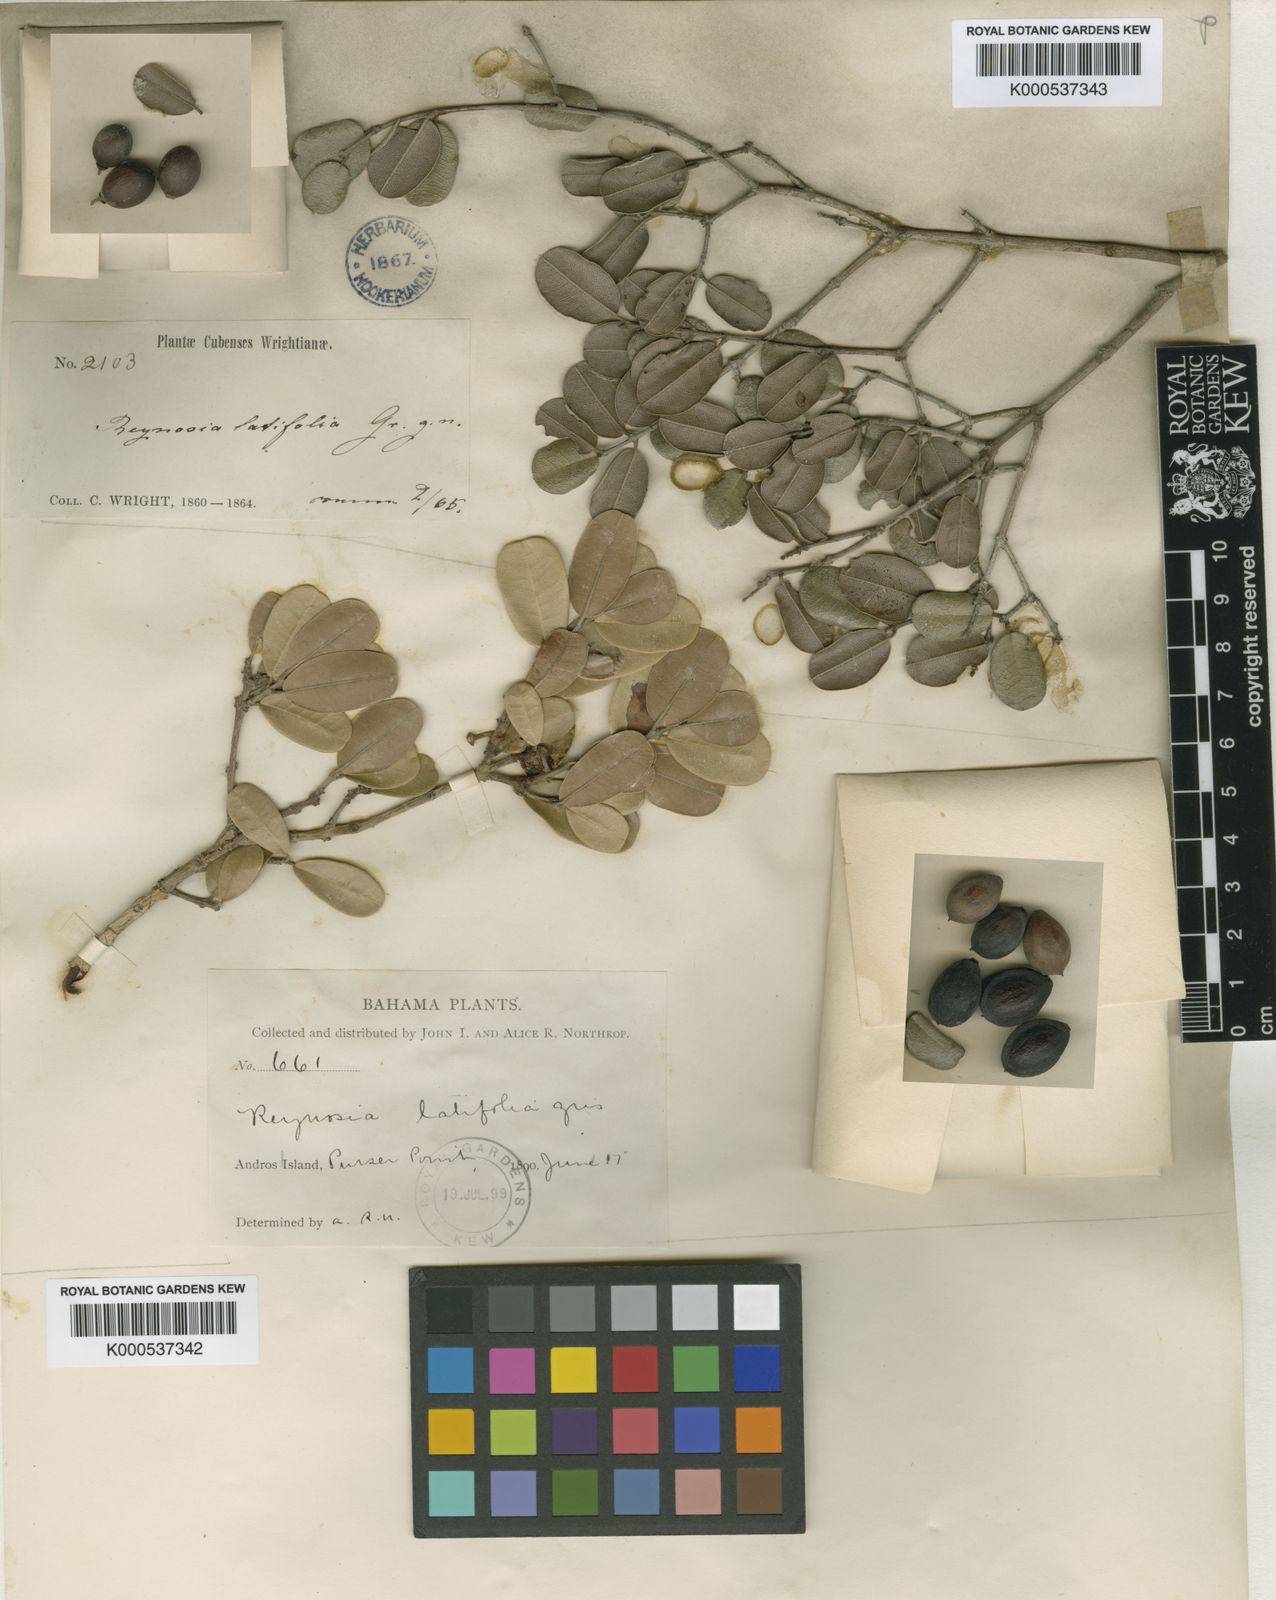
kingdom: Plantae
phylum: Tracheophyta
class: Magnoliopsida
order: Rosales
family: Rhamnaceae
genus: Reynosia
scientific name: Reynosia latifolia
